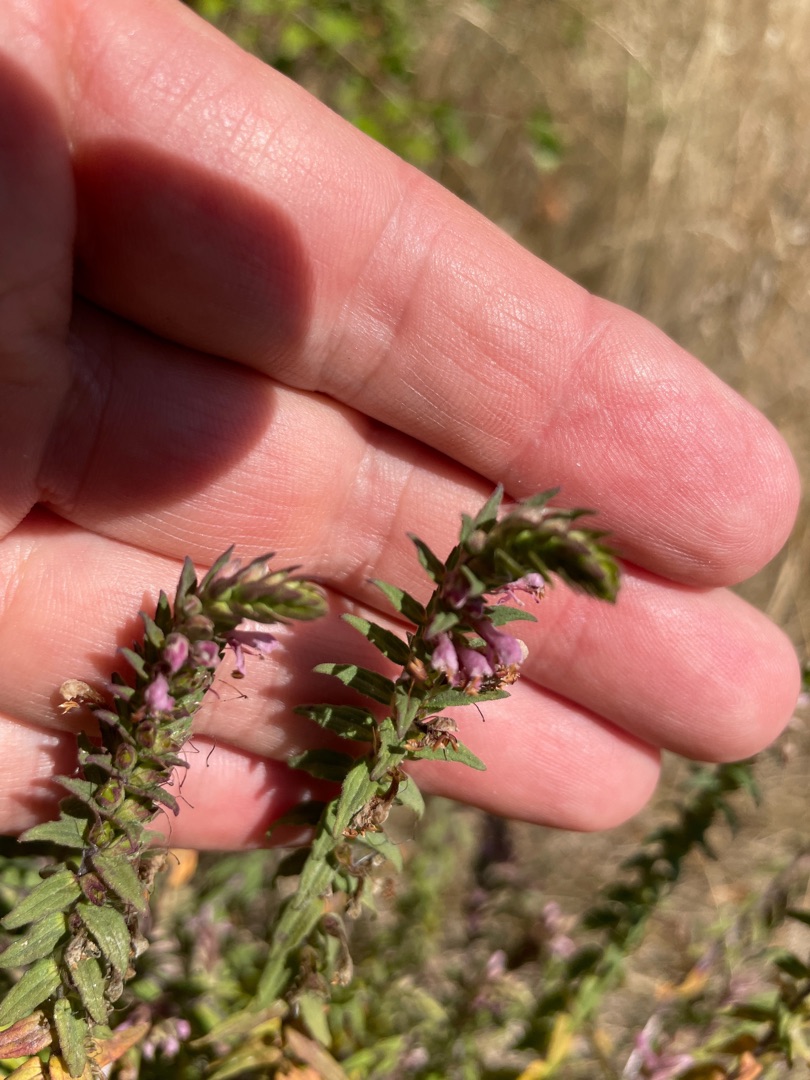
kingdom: Plantae
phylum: Tracheophyta
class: Magnoliopsida
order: Lamiales
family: Orobanchaceae
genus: Odontites
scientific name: Odontites vulgaris
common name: Høst-rødtop
